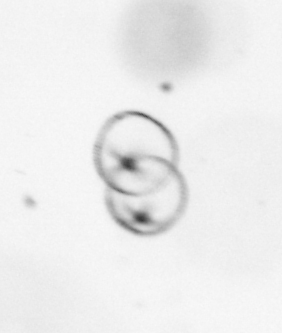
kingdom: Chromista
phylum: Myzozoa
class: Dinophyceae
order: Noctilucales
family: Noctilucaceae
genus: Noctiluca
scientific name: Noctiluca scintillans
